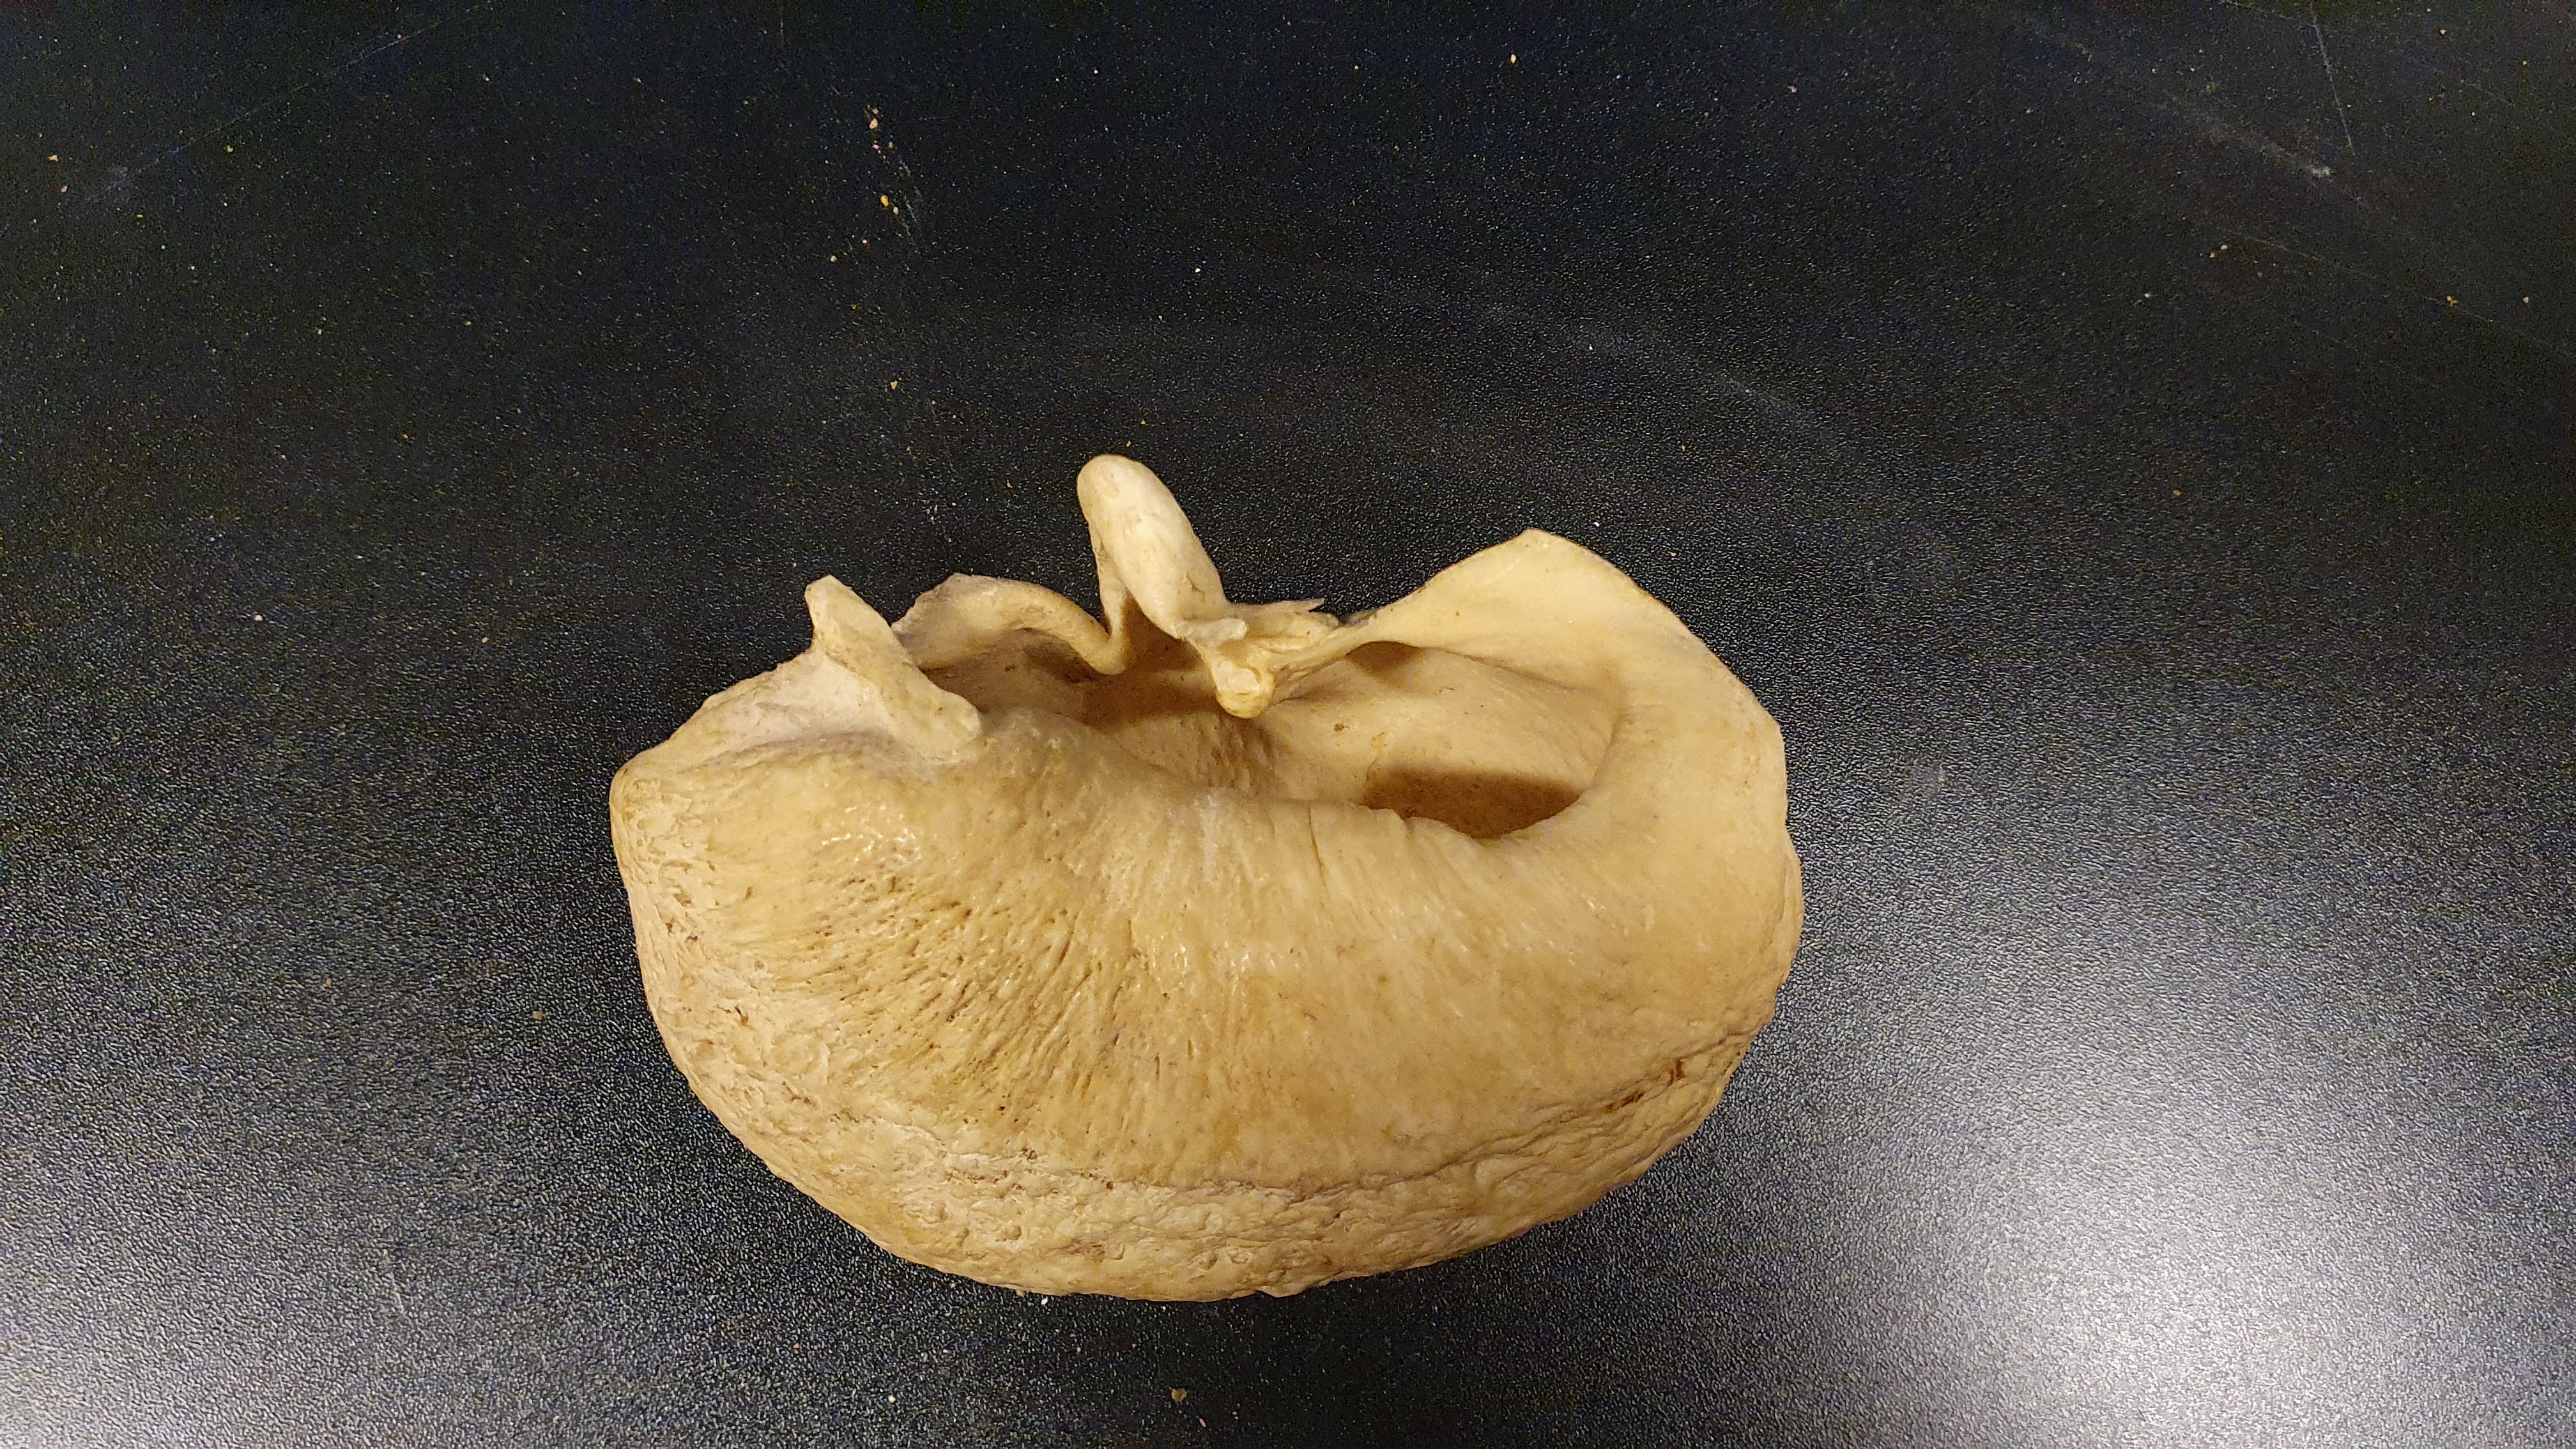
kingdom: Animalia
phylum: Chordata
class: Mammalia
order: Cetacea
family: Balaenopteridae
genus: Balaenoptera
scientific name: Balaenoptera borealis
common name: Sei whale
